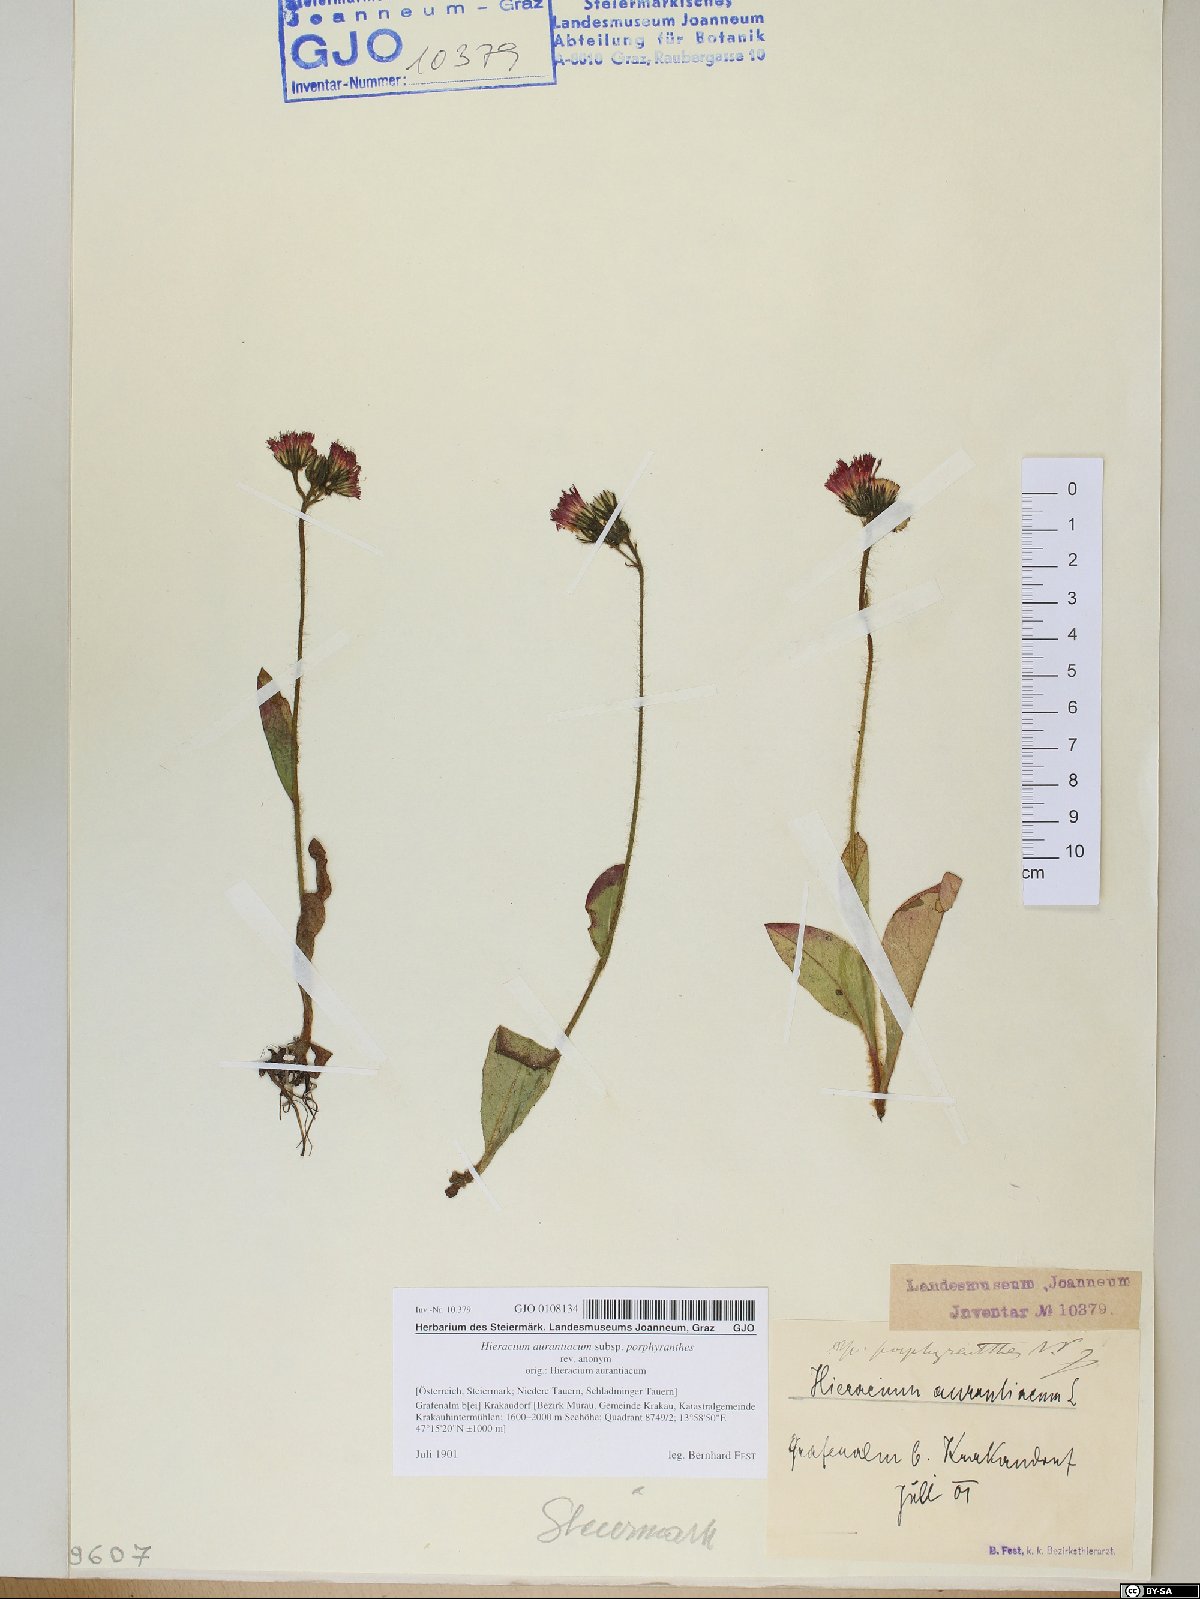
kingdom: Plantae
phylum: Tracheophyta
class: Magnoliopsida
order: Asterales
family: Asteraceae
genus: Pilosella
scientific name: Pilosella aurantiaca
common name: Fox-and-cubs
